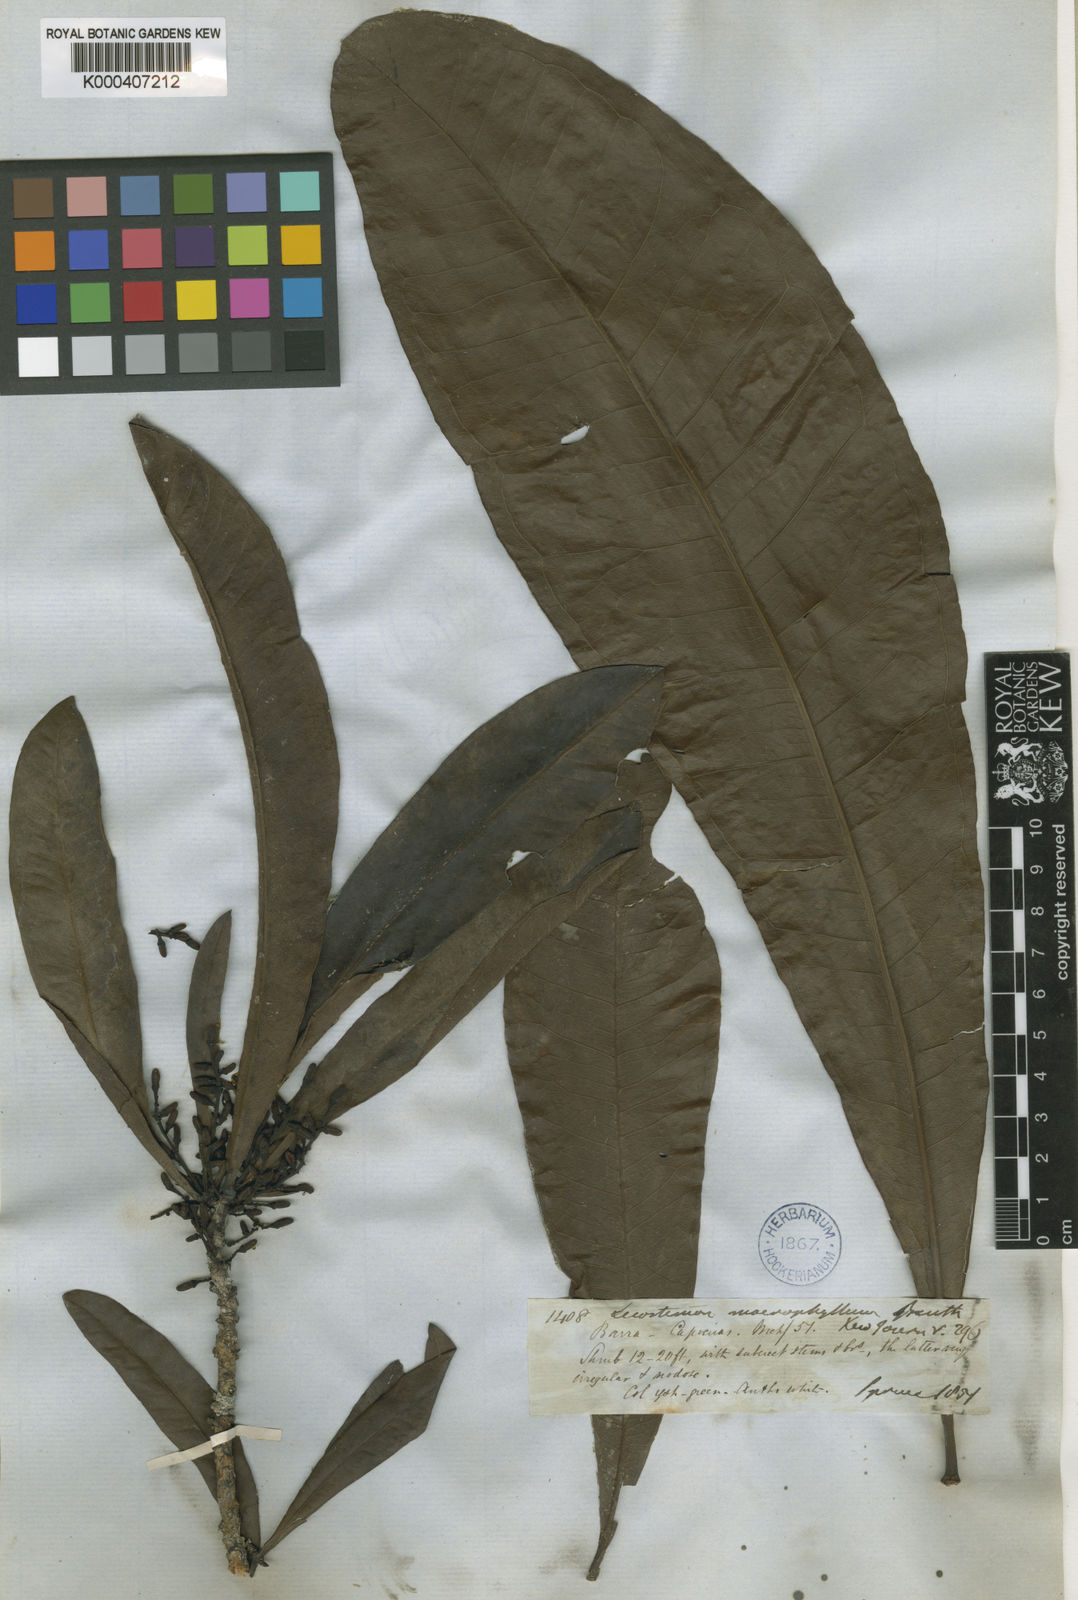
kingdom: Plantae
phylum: Tracheophyta
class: Magnoliopsida
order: Caryophyllales
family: Rhabdodendraceae
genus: Rhabdodendron
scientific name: Rhabdodendron macrophyllum
